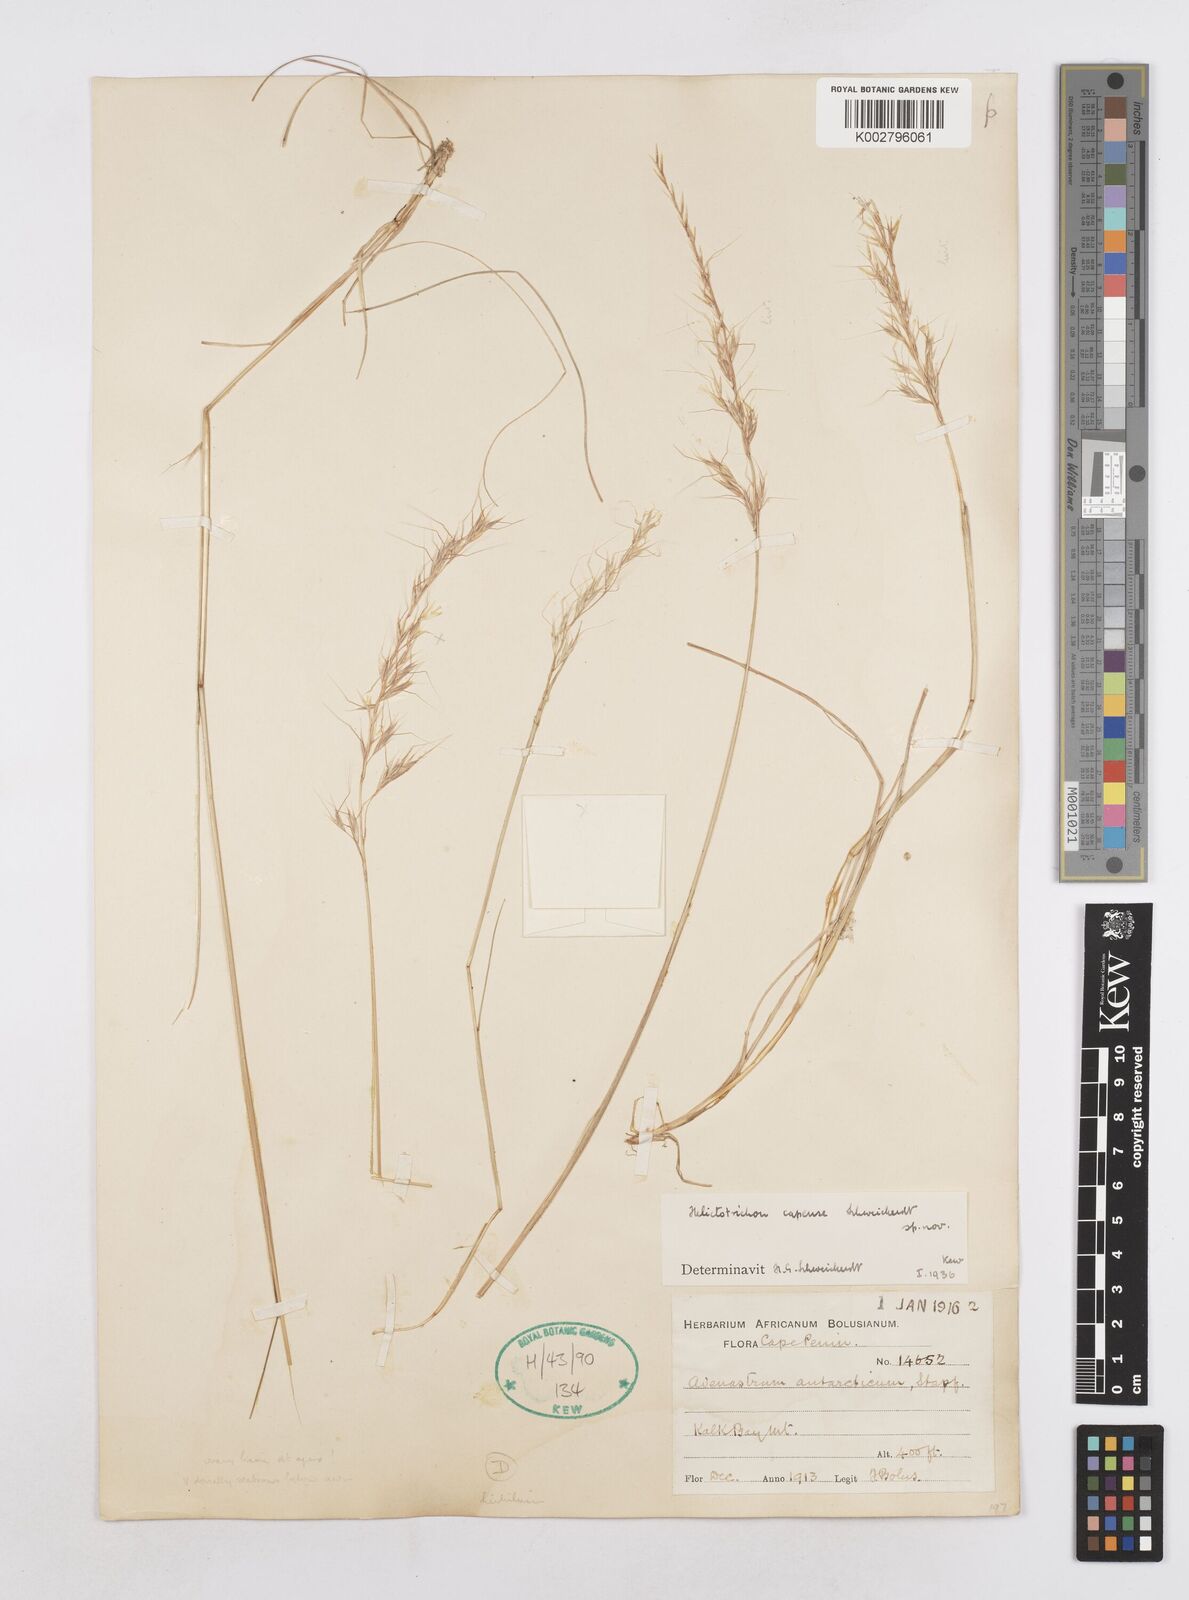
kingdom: Plantae
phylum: Tracheophyta
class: Liliopsida
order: Poales
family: Poaceae
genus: Trisetopsis
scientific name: Trisetopsis capensis
